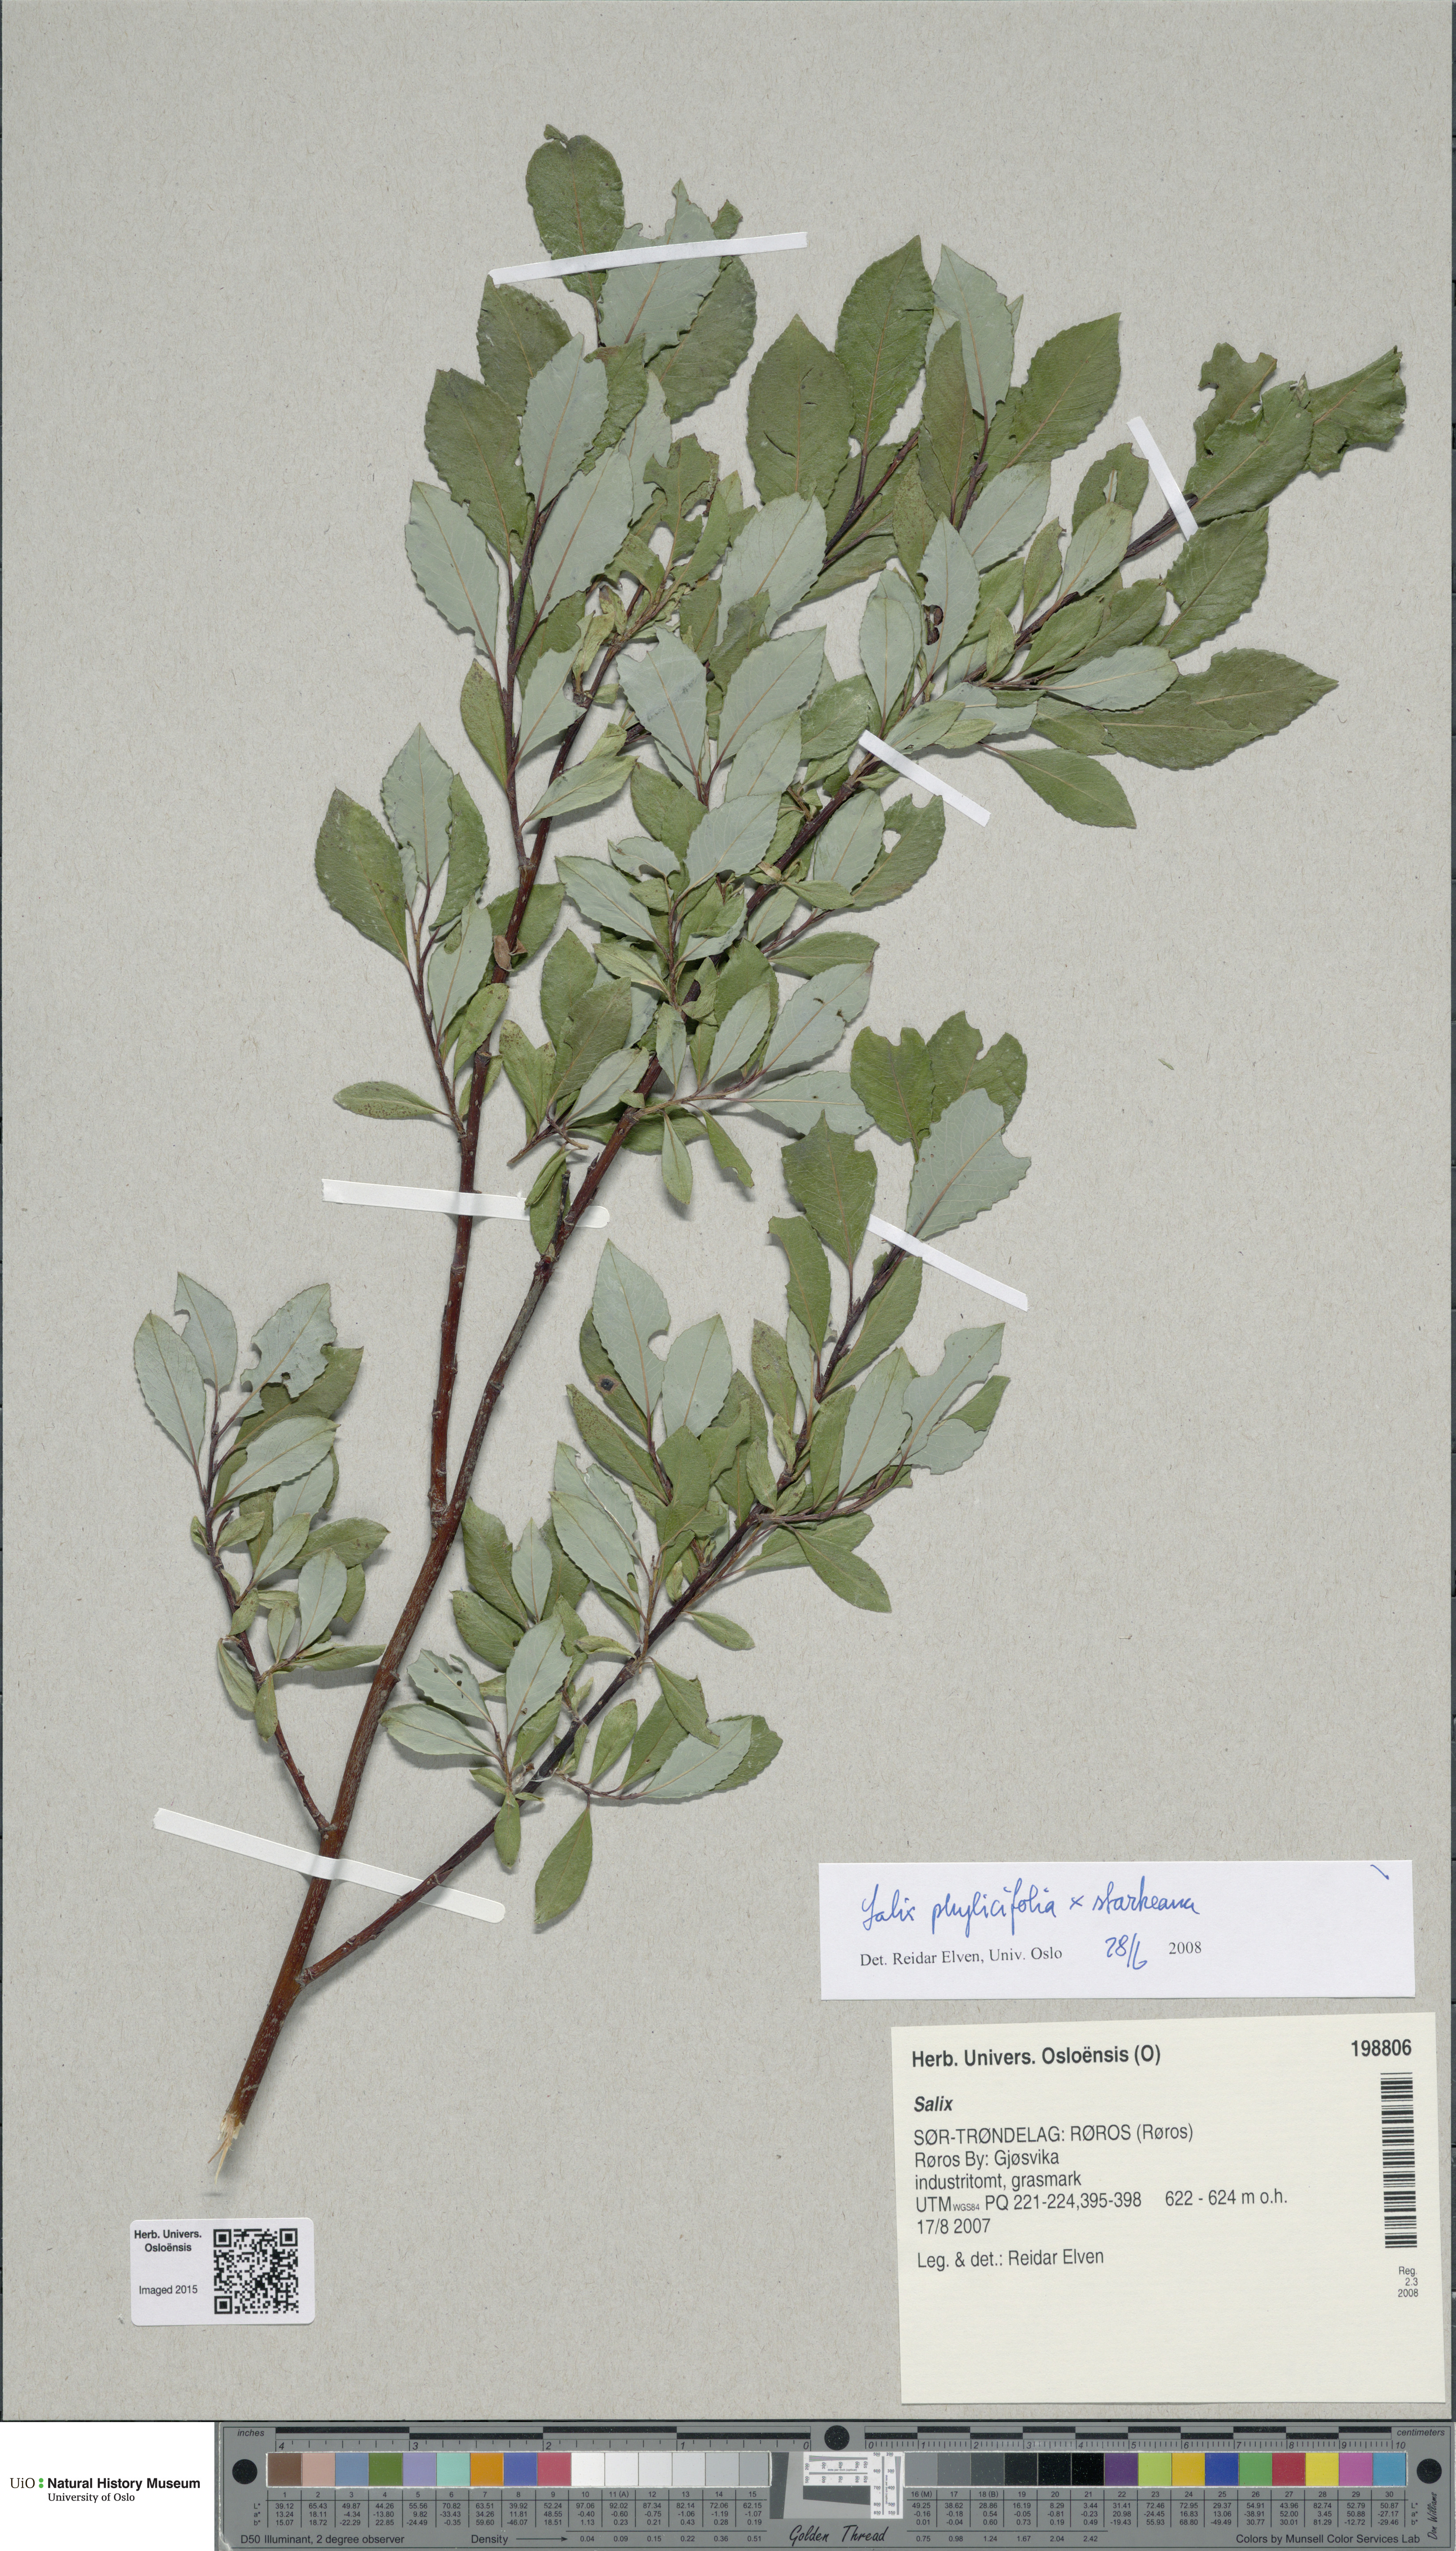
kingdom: Plantae
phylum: Tracheophyta
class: Magnoliopsida
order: Malpighiales
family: Salicaceae
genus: Salix
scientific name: Salix
